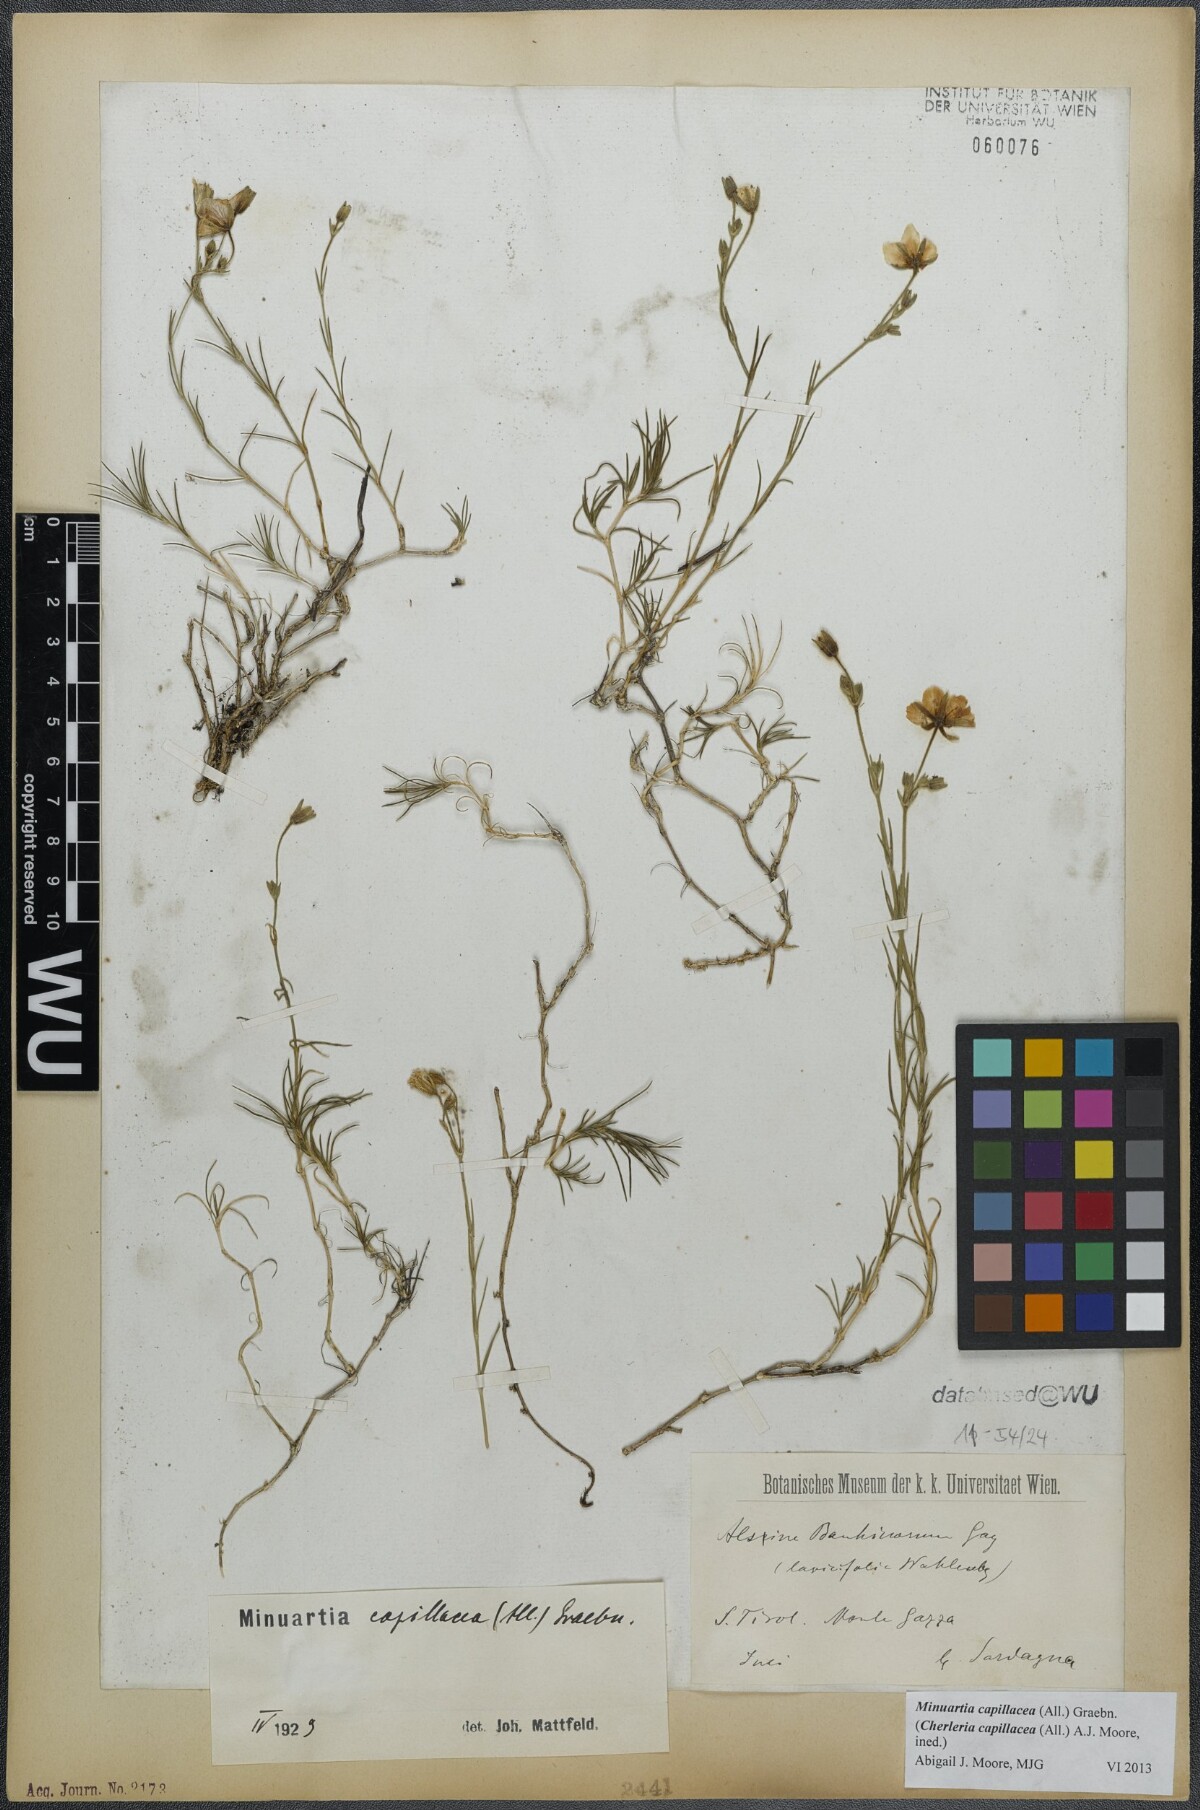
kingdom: Plantae
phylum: Tracheophyta
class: Magnoliopsida
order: Caryophyllales
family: Caryophyllaceae
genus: Cherleria
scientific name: Cherleria capillacea
